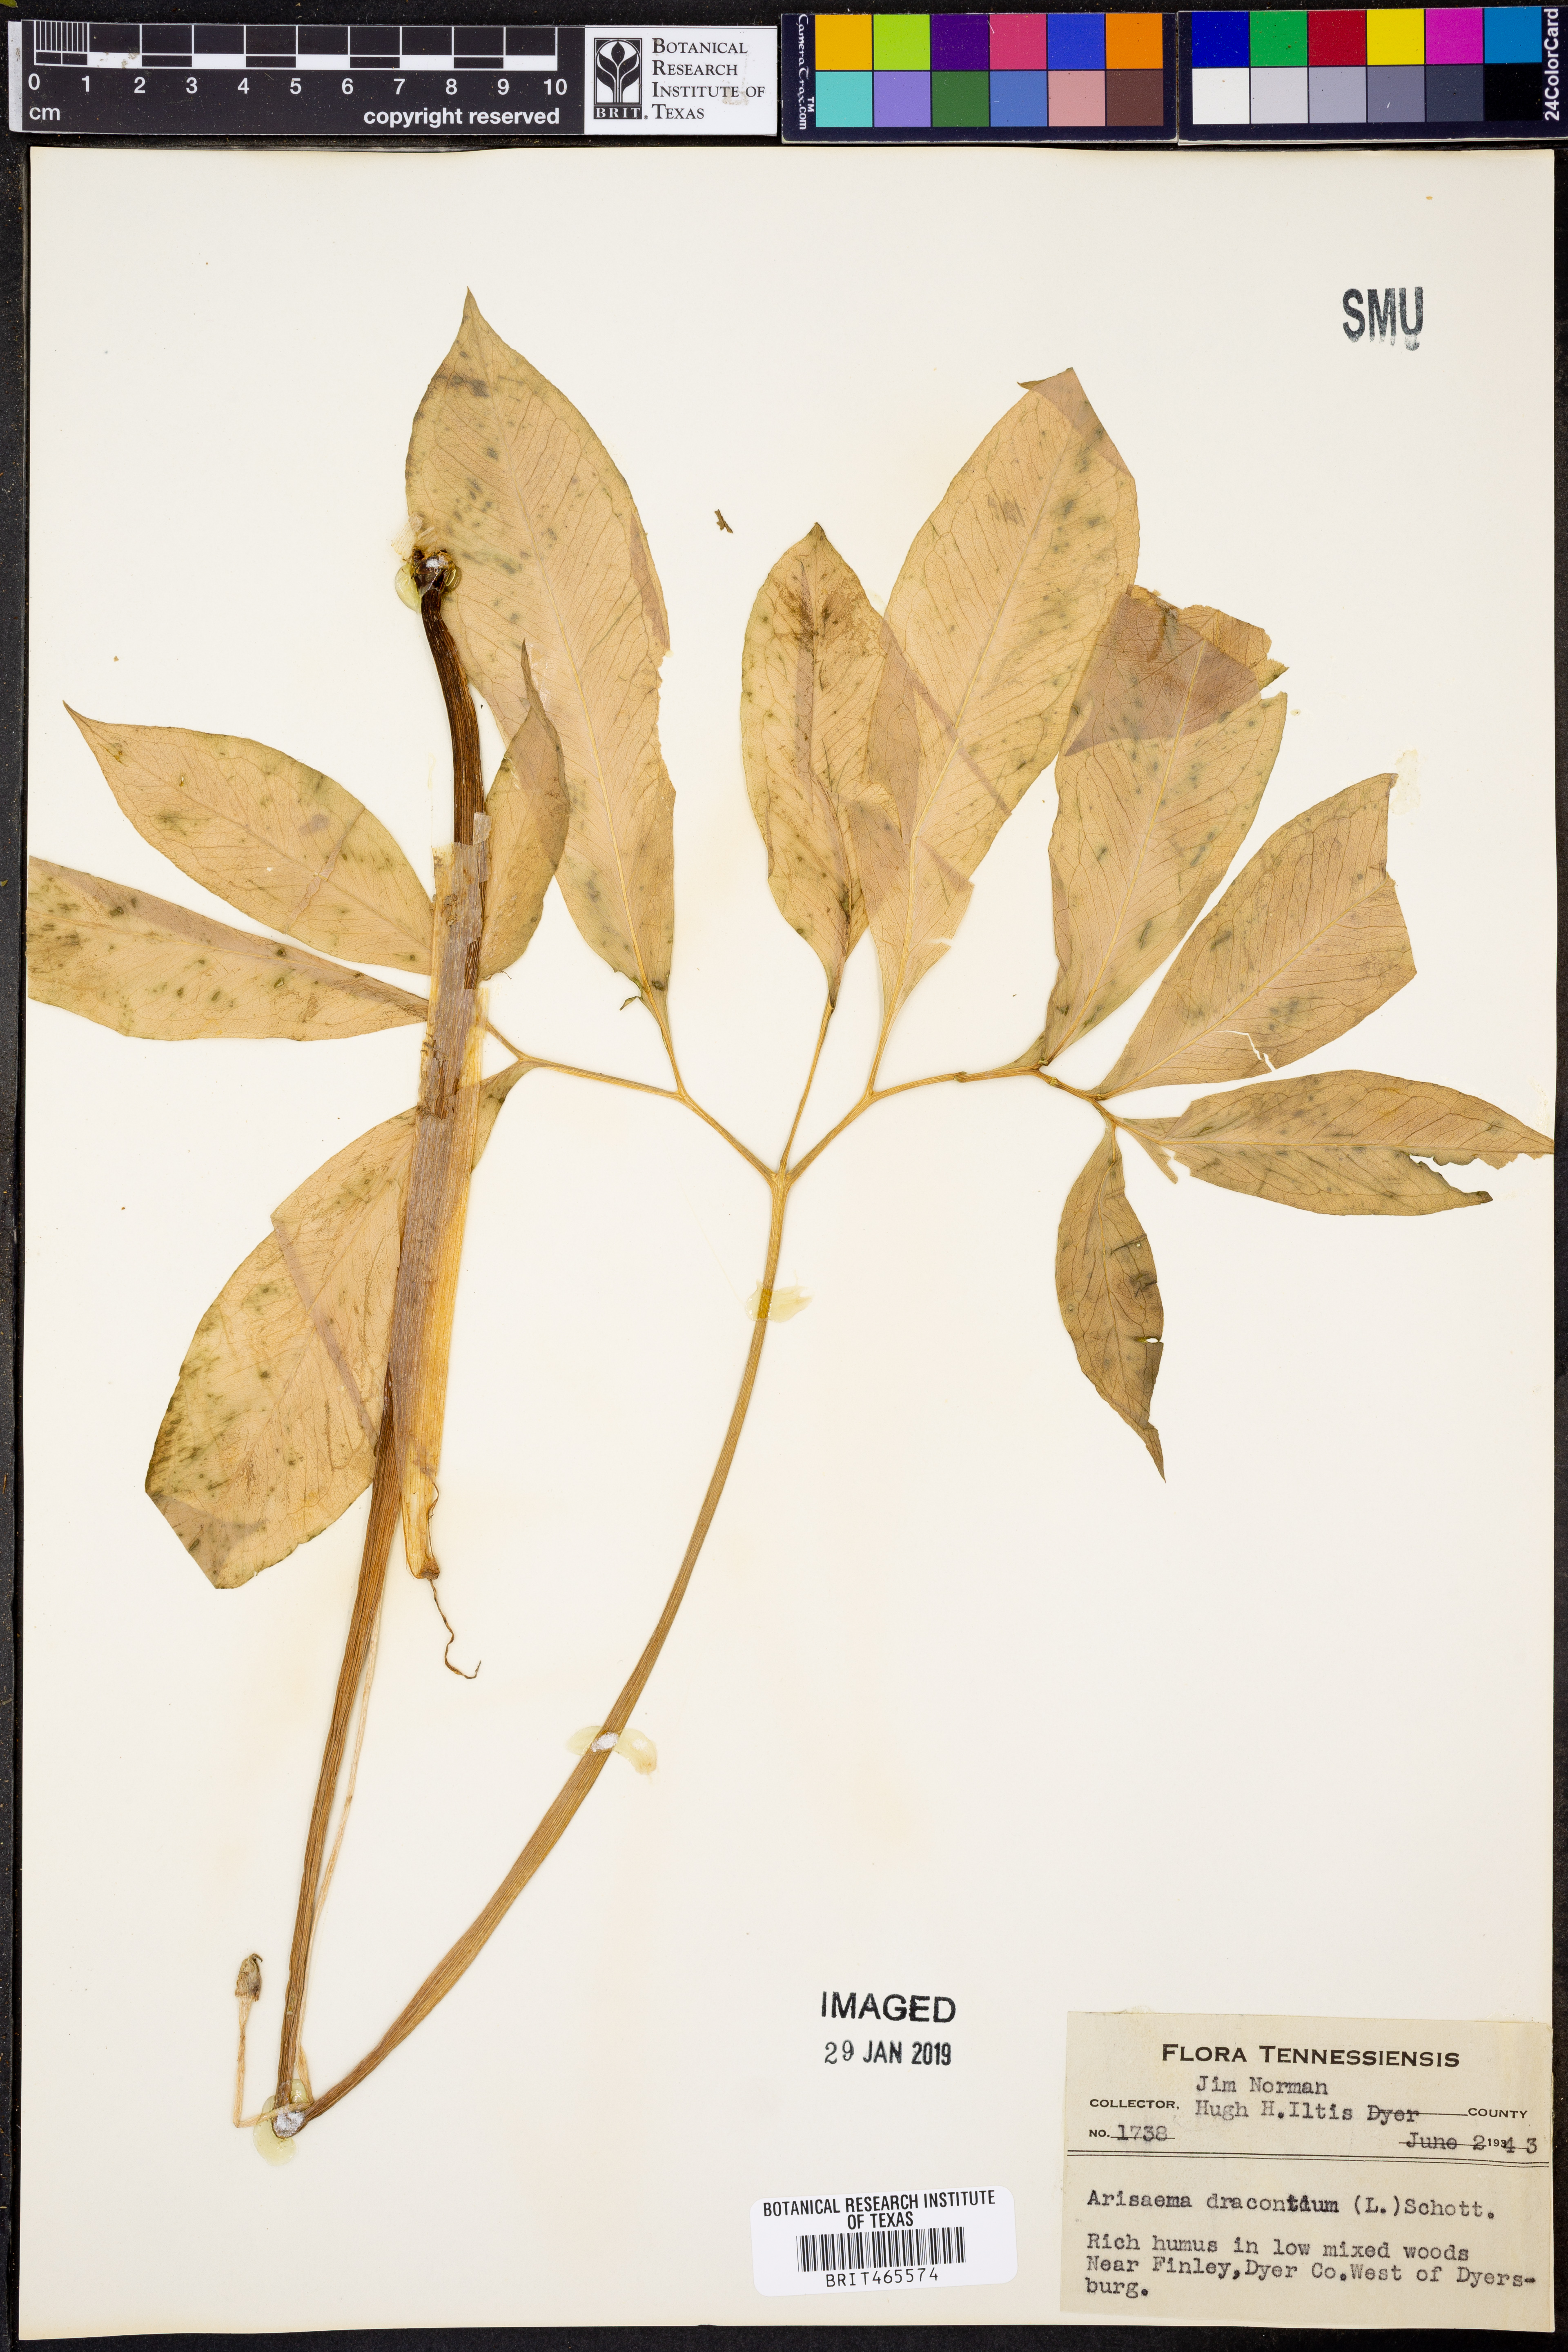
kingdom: Plantae
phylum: Tracheophyta
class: Liliopsida
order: Alismatales
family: Araceae
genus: Arisaema
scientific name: Arisaema dracontium
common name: Dragon-arum
